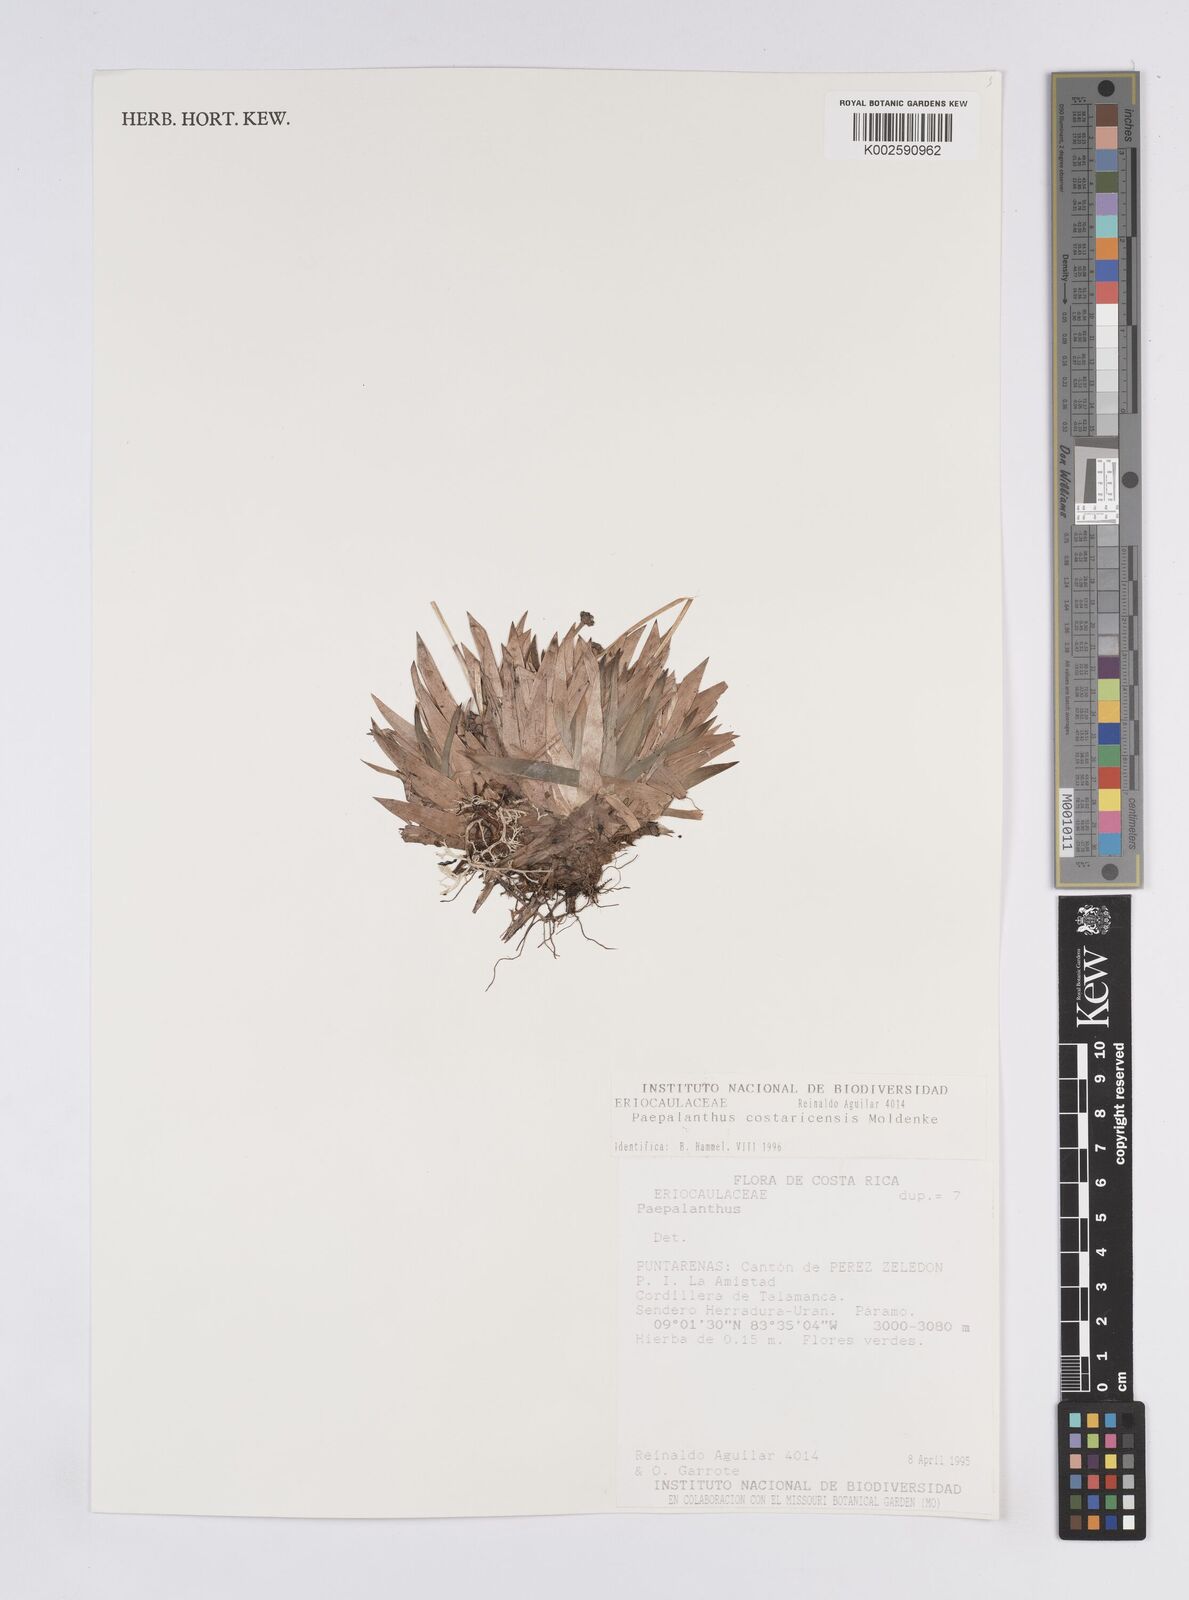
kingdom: Plantae
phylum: Tracheophyta
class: Liliopsida
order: Poales
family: Eriocaulaceae
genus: Paepalanthus
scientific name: Paepalanthus costaricensis
